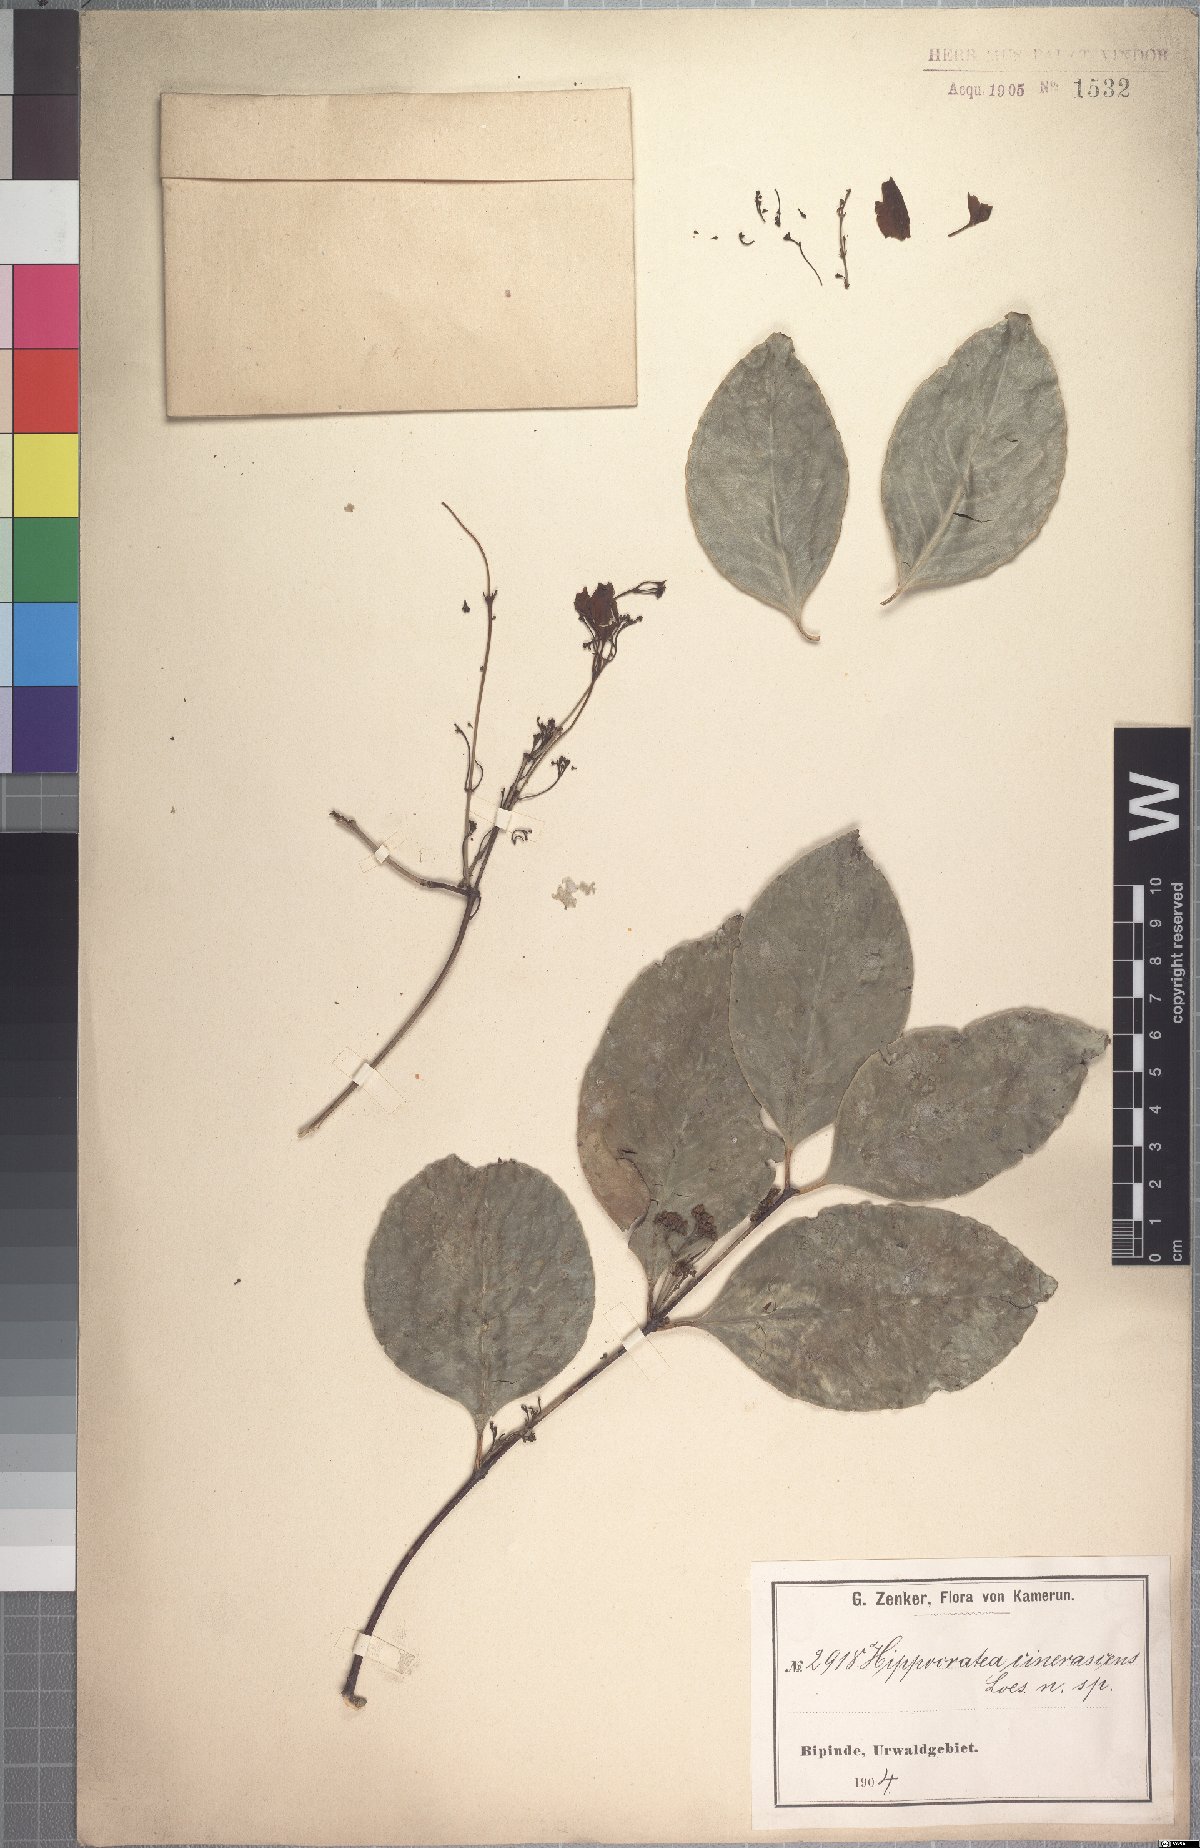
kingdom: Plantae
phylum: Tracheophyta
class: Magnoliopsida
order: Celastrales
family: Celastraceae
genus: Pristimera
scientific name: Pristimera andongensis
